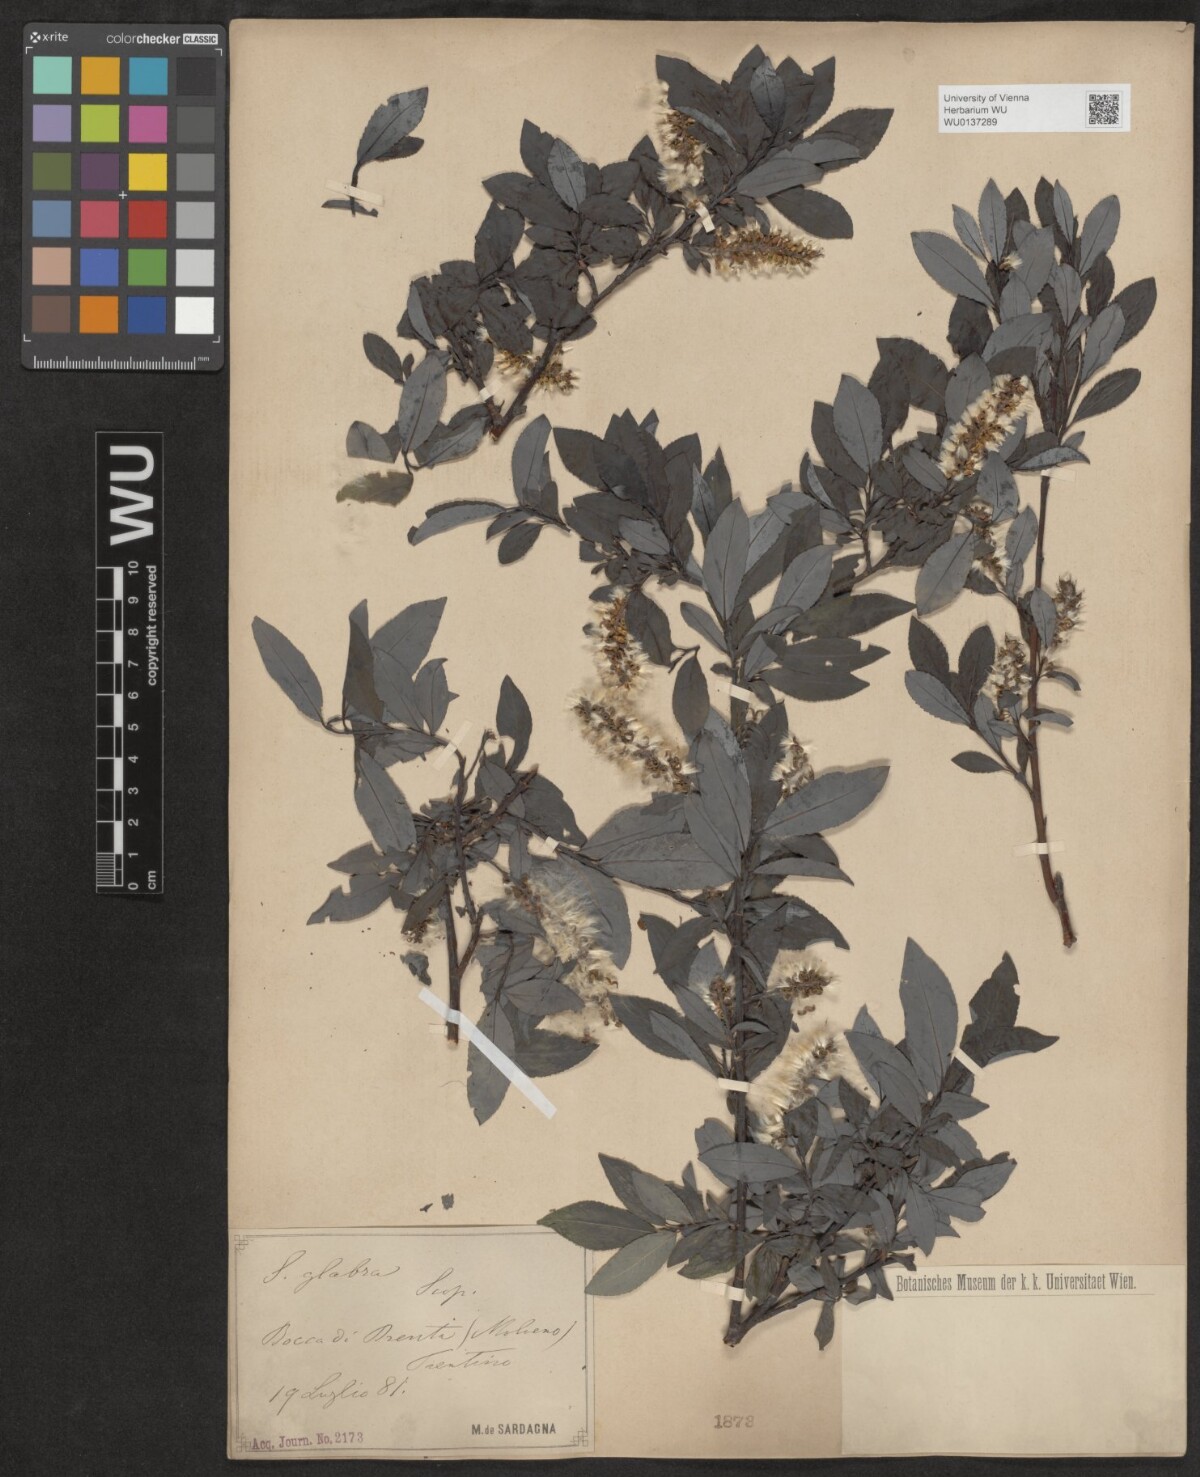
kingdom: Plantae
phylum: Tracheophyta
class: Magnoliopsida
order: Malpighiales
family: Salicaceae
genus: Salix
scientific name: Salix glabra
